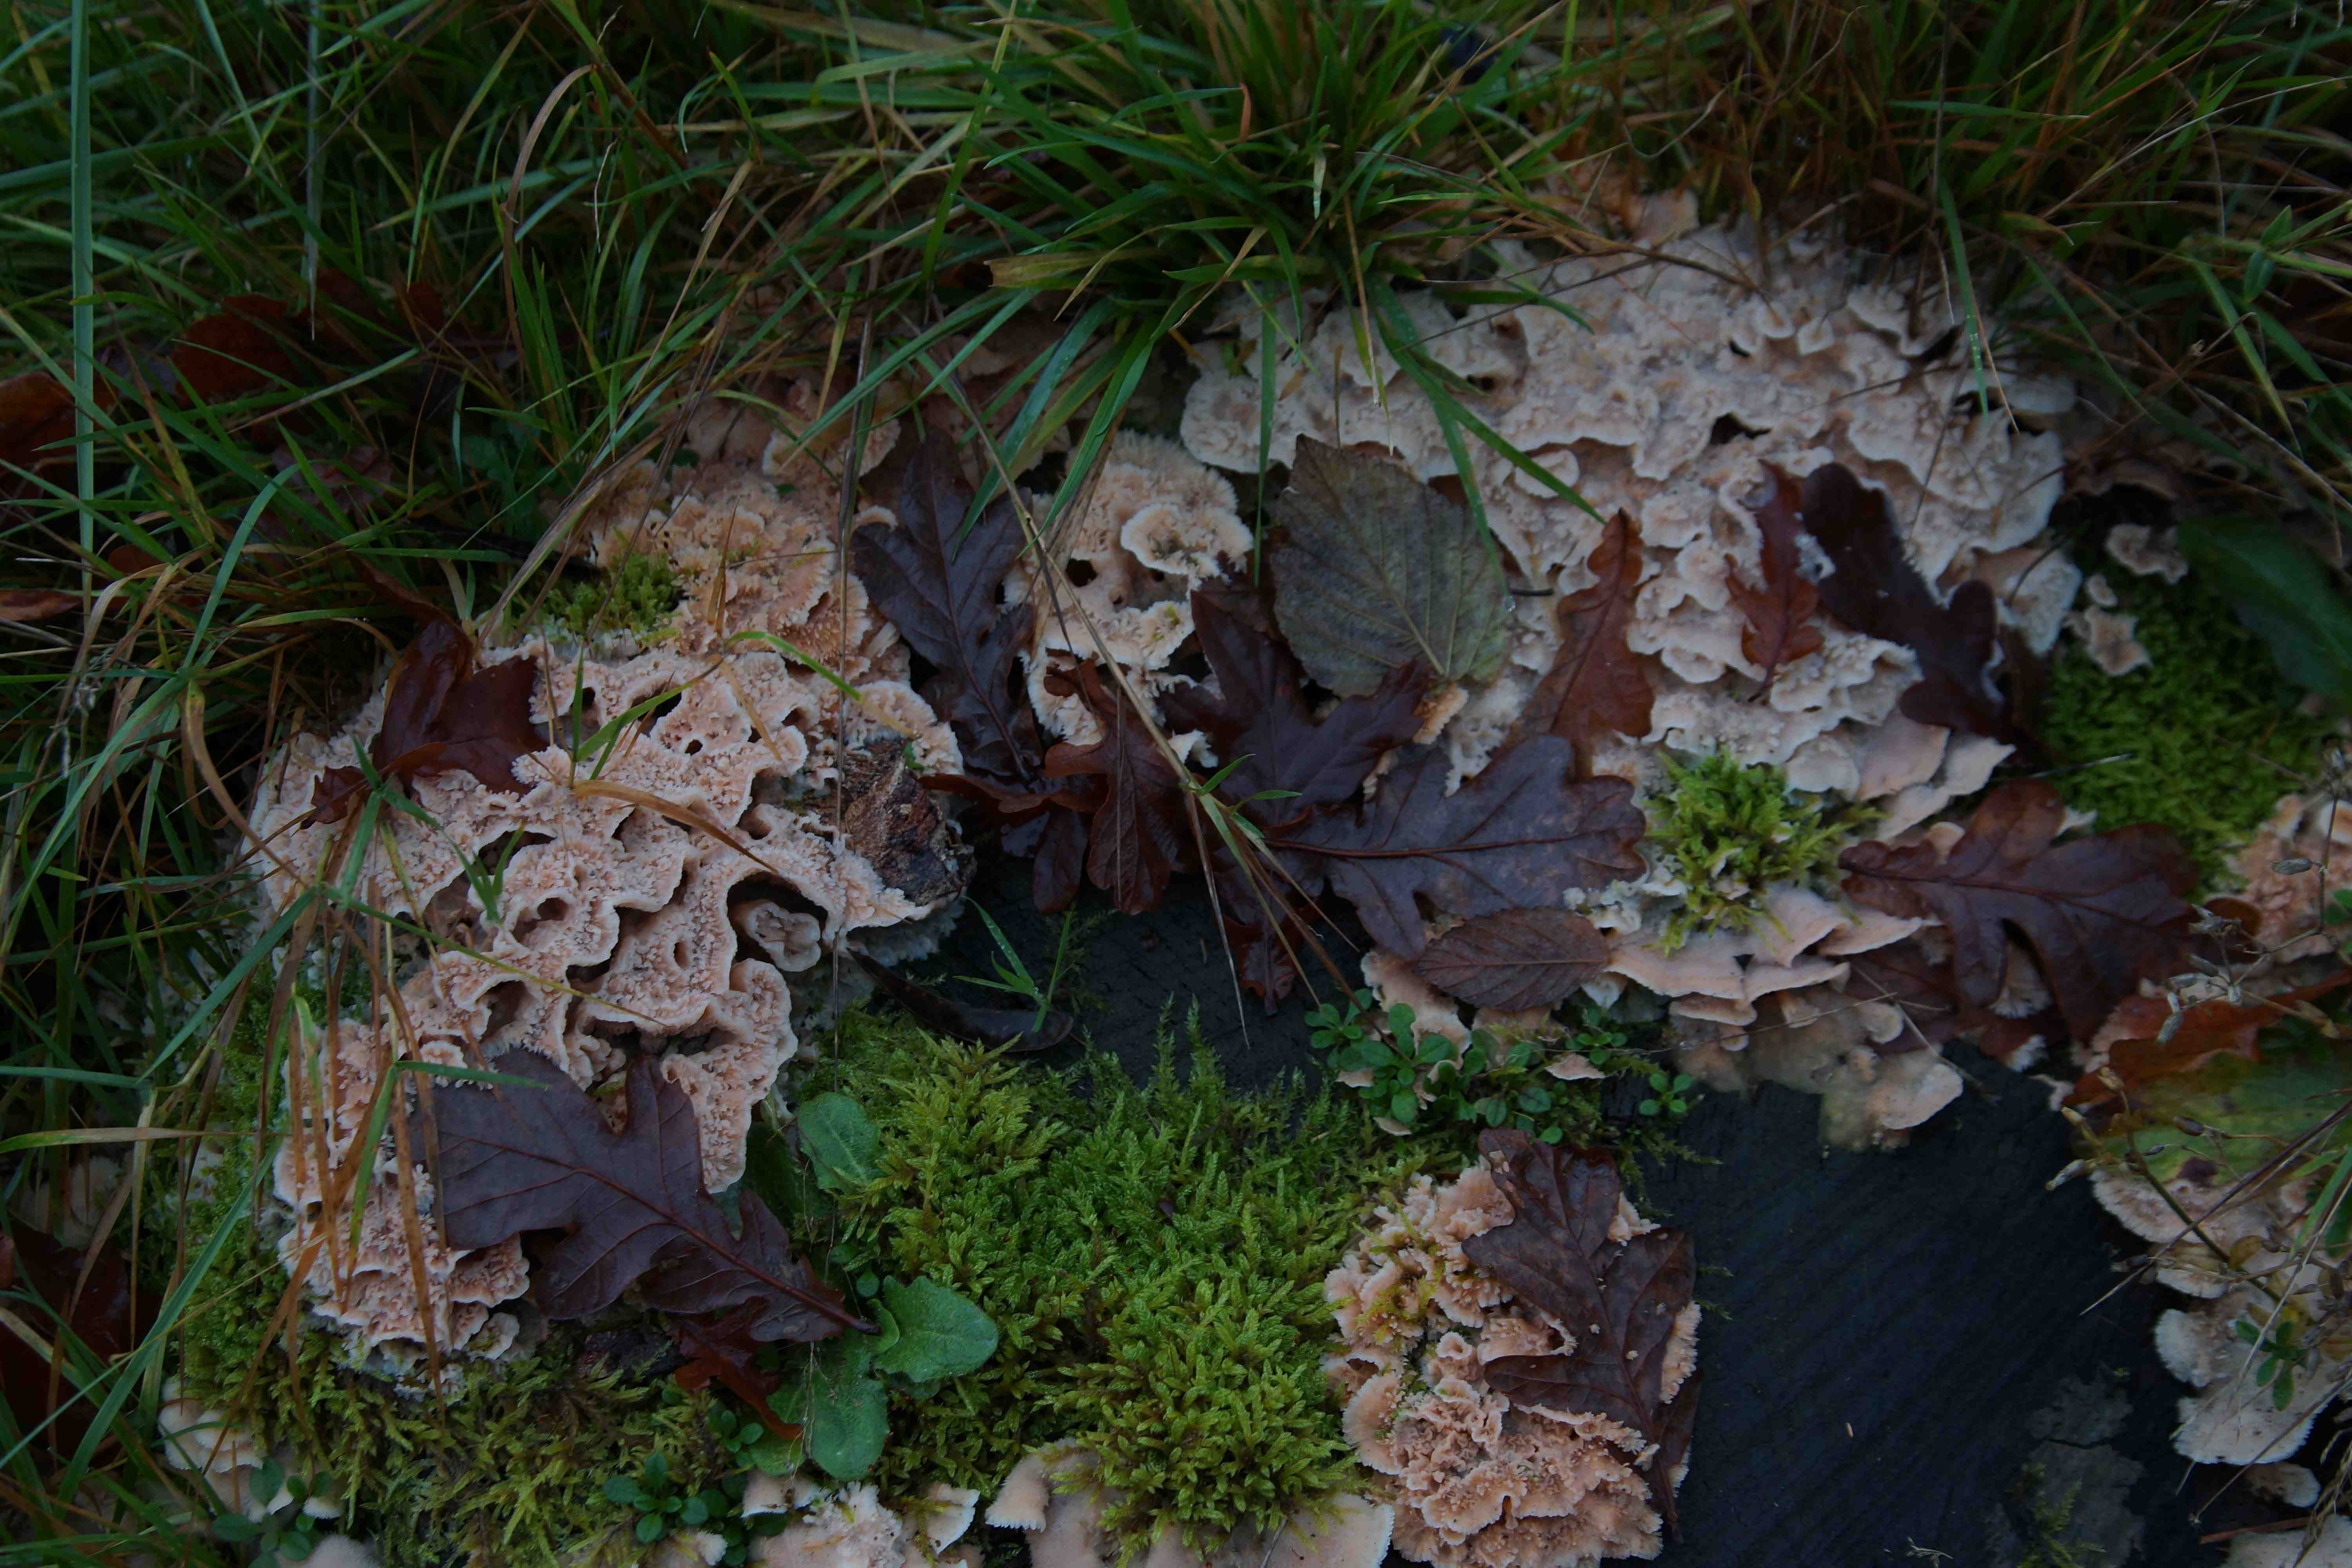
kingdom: Fungi
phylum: Basidiomycota
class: Agaricomycetes
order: Polyporales
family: Meruliaceae
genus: Phlebia
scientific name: Phlebia tremellosa
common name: bævrende åresvamp
